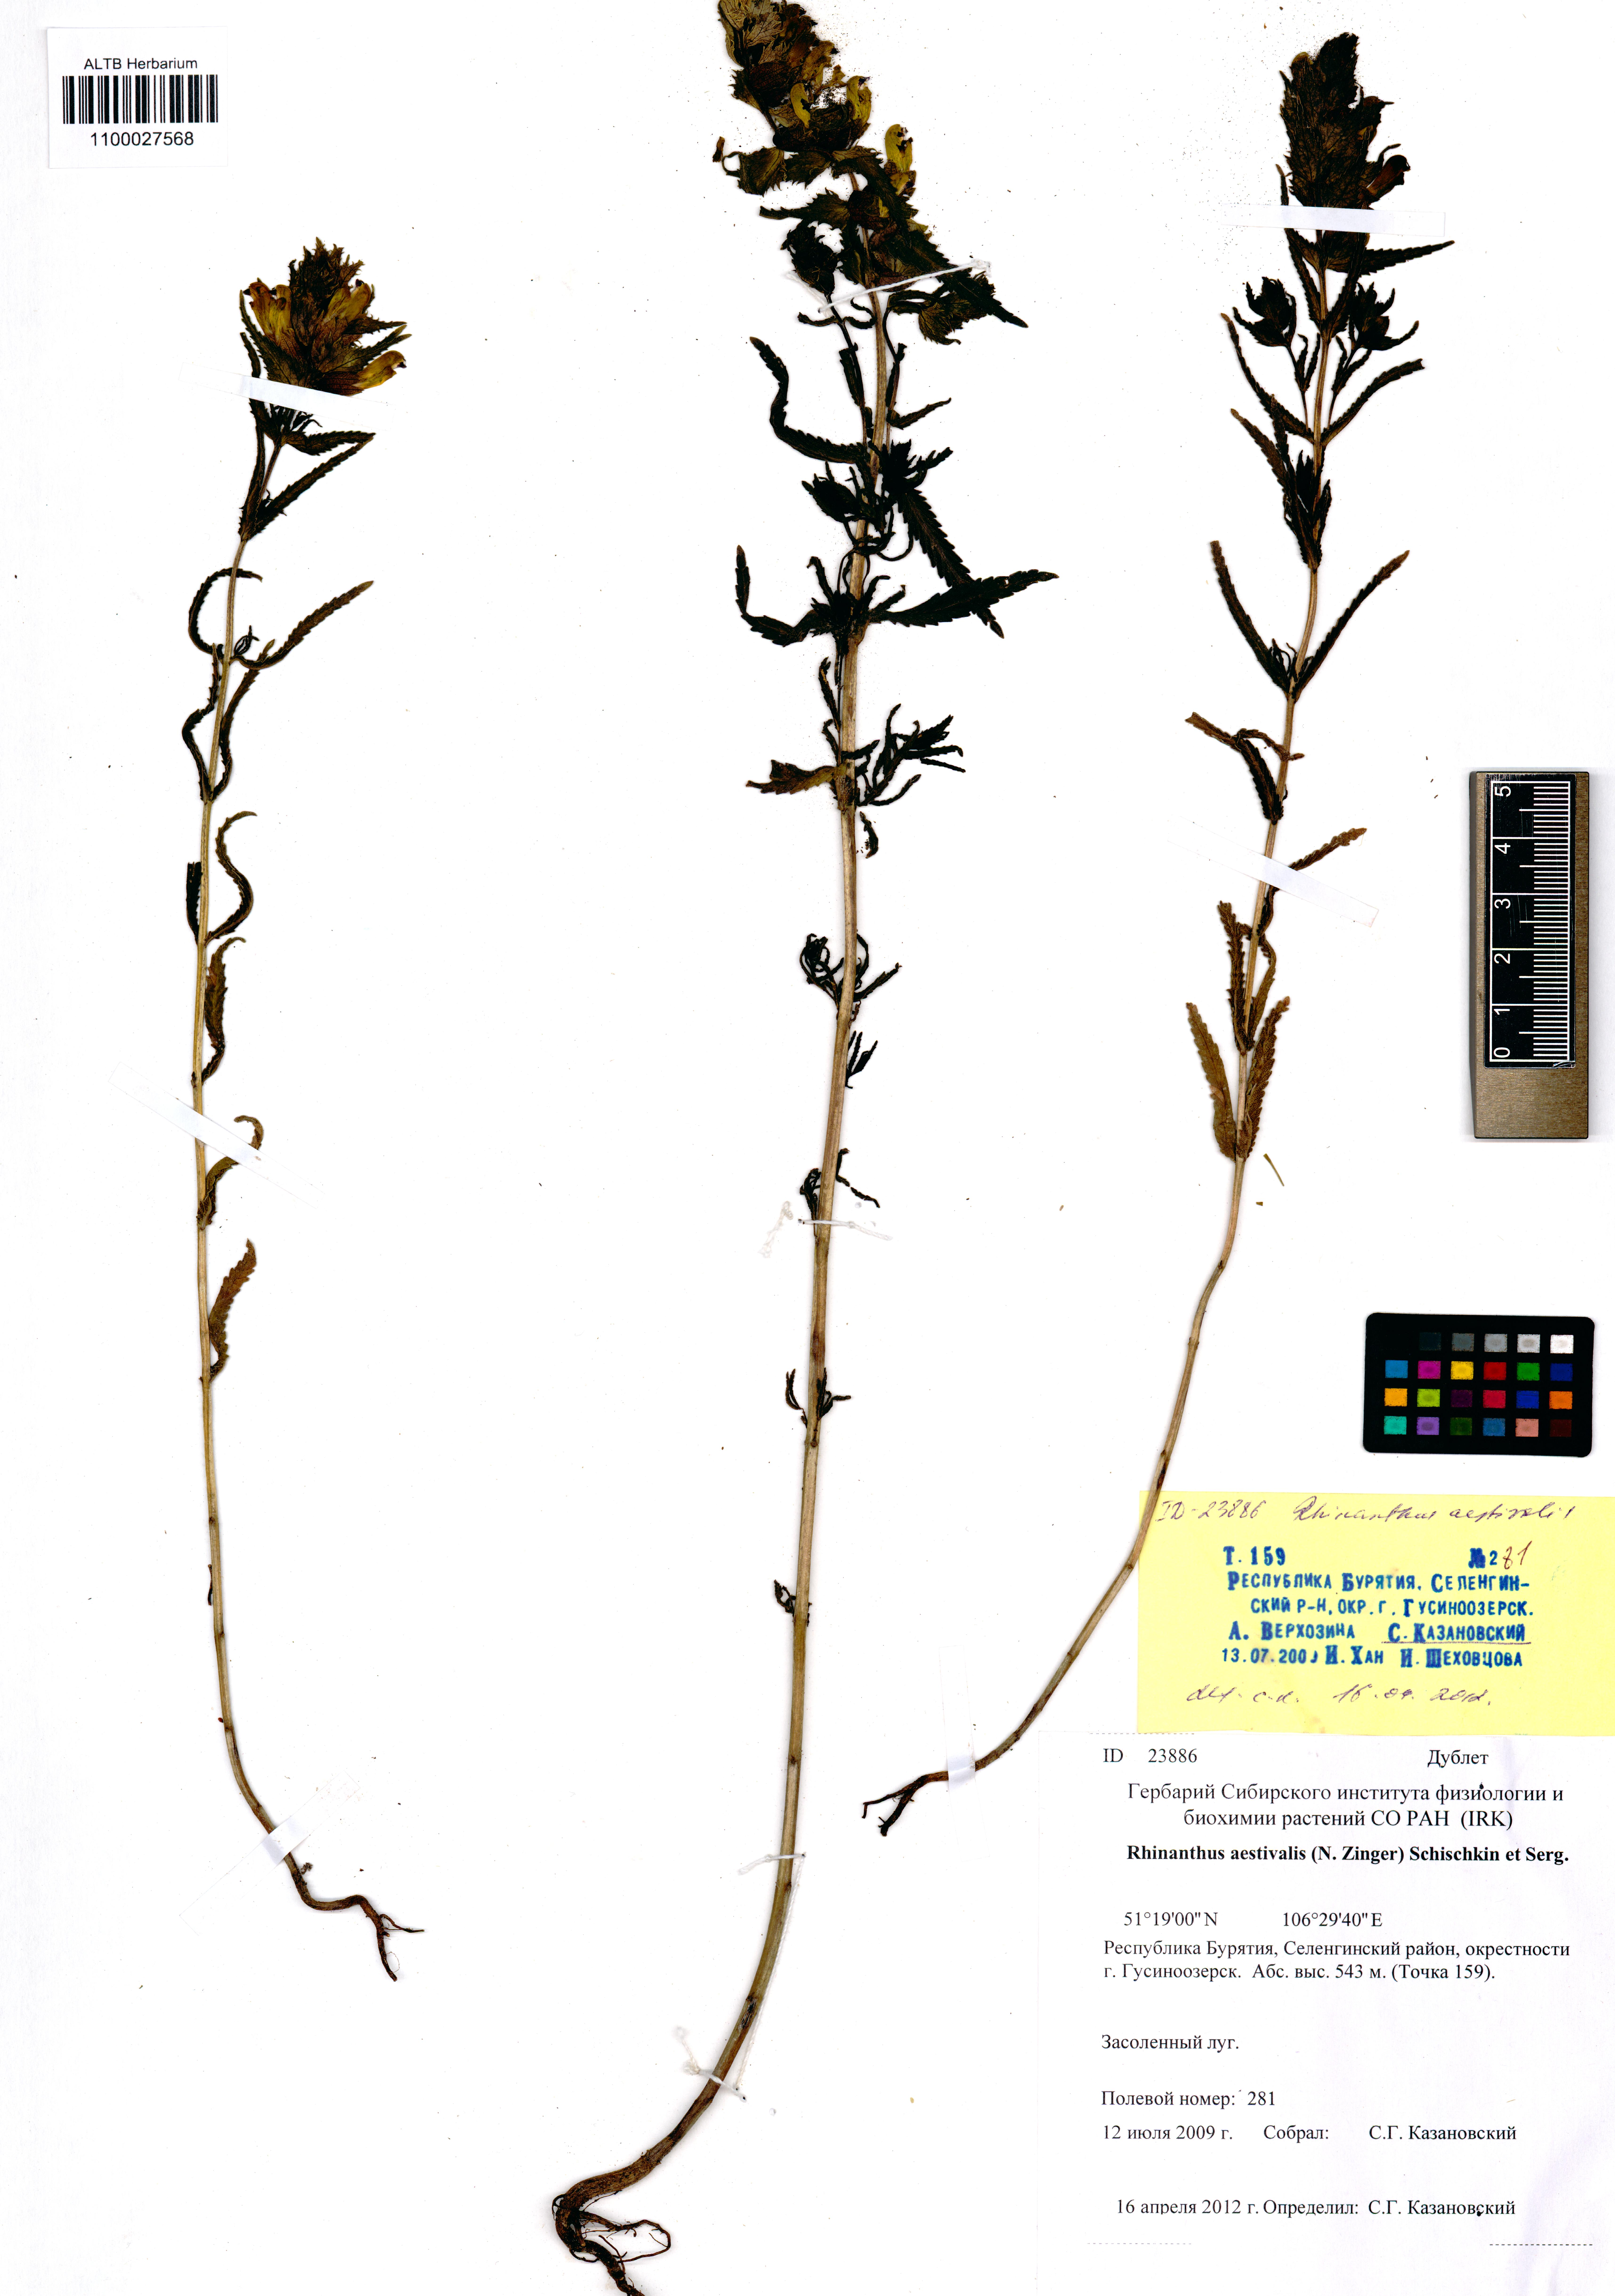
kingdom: Plantae
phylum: Tracheophyta
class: Magnoliopsida
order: Lamiales
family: Orobanchaceae
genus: Rhinanthus
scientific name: Rhinanthus serotinus
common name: Late-flowering yellow rattle
